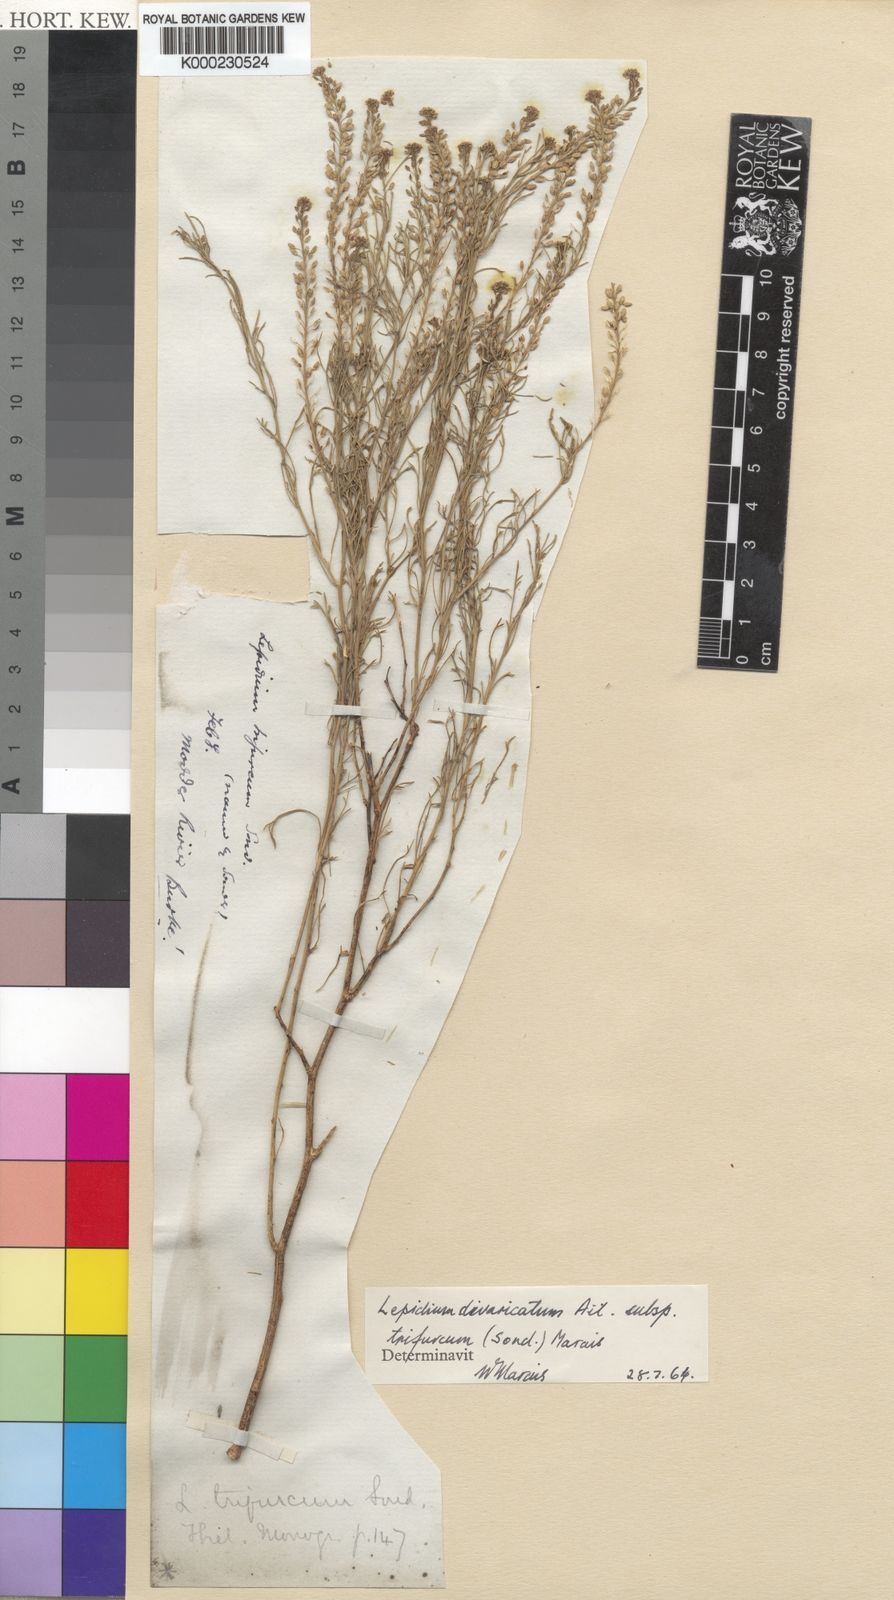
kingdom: Plantae
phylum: Tracheophyta
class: Magnoliopsida
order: Brassicales
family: Brassicaceae
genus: Lepidium
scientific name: Lepidium divaricatum
